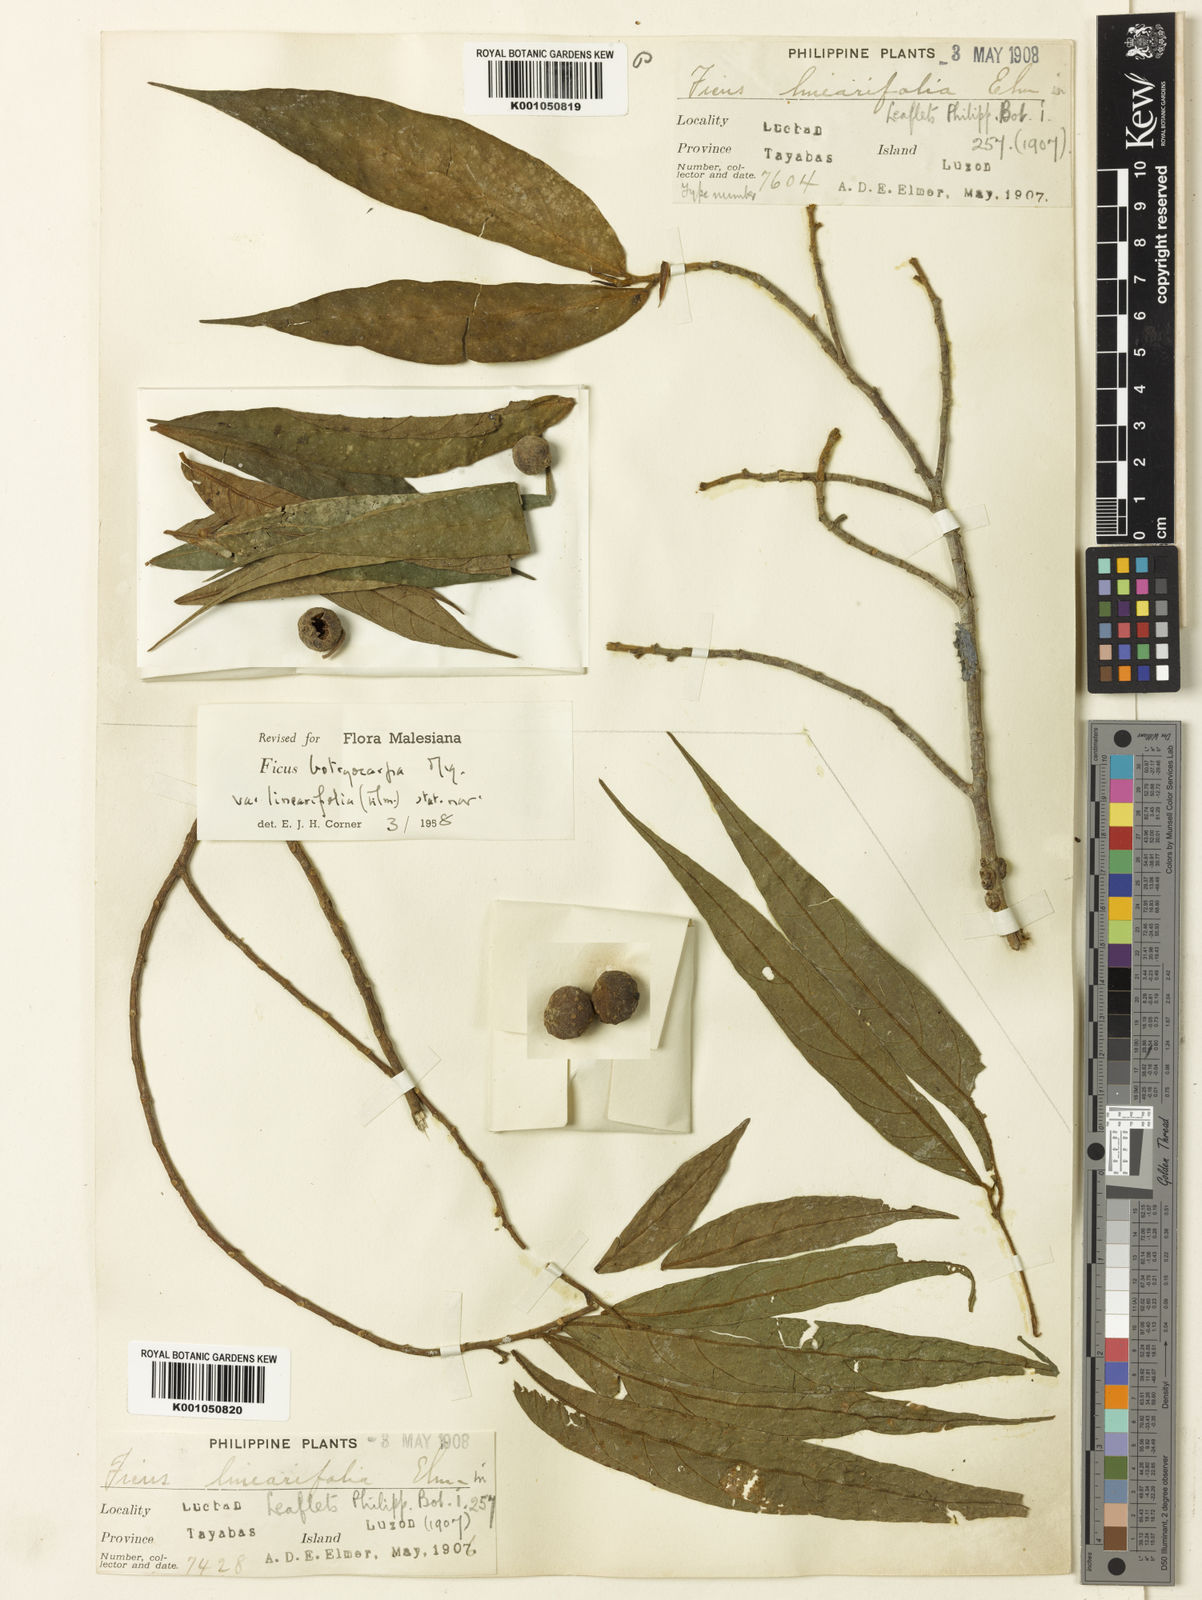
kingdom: Plantae
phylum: Tracheophyta
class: Magnoliopsida
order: Rosales
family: Moraceae
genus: Ficus
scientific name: Ficus botryocarpa
